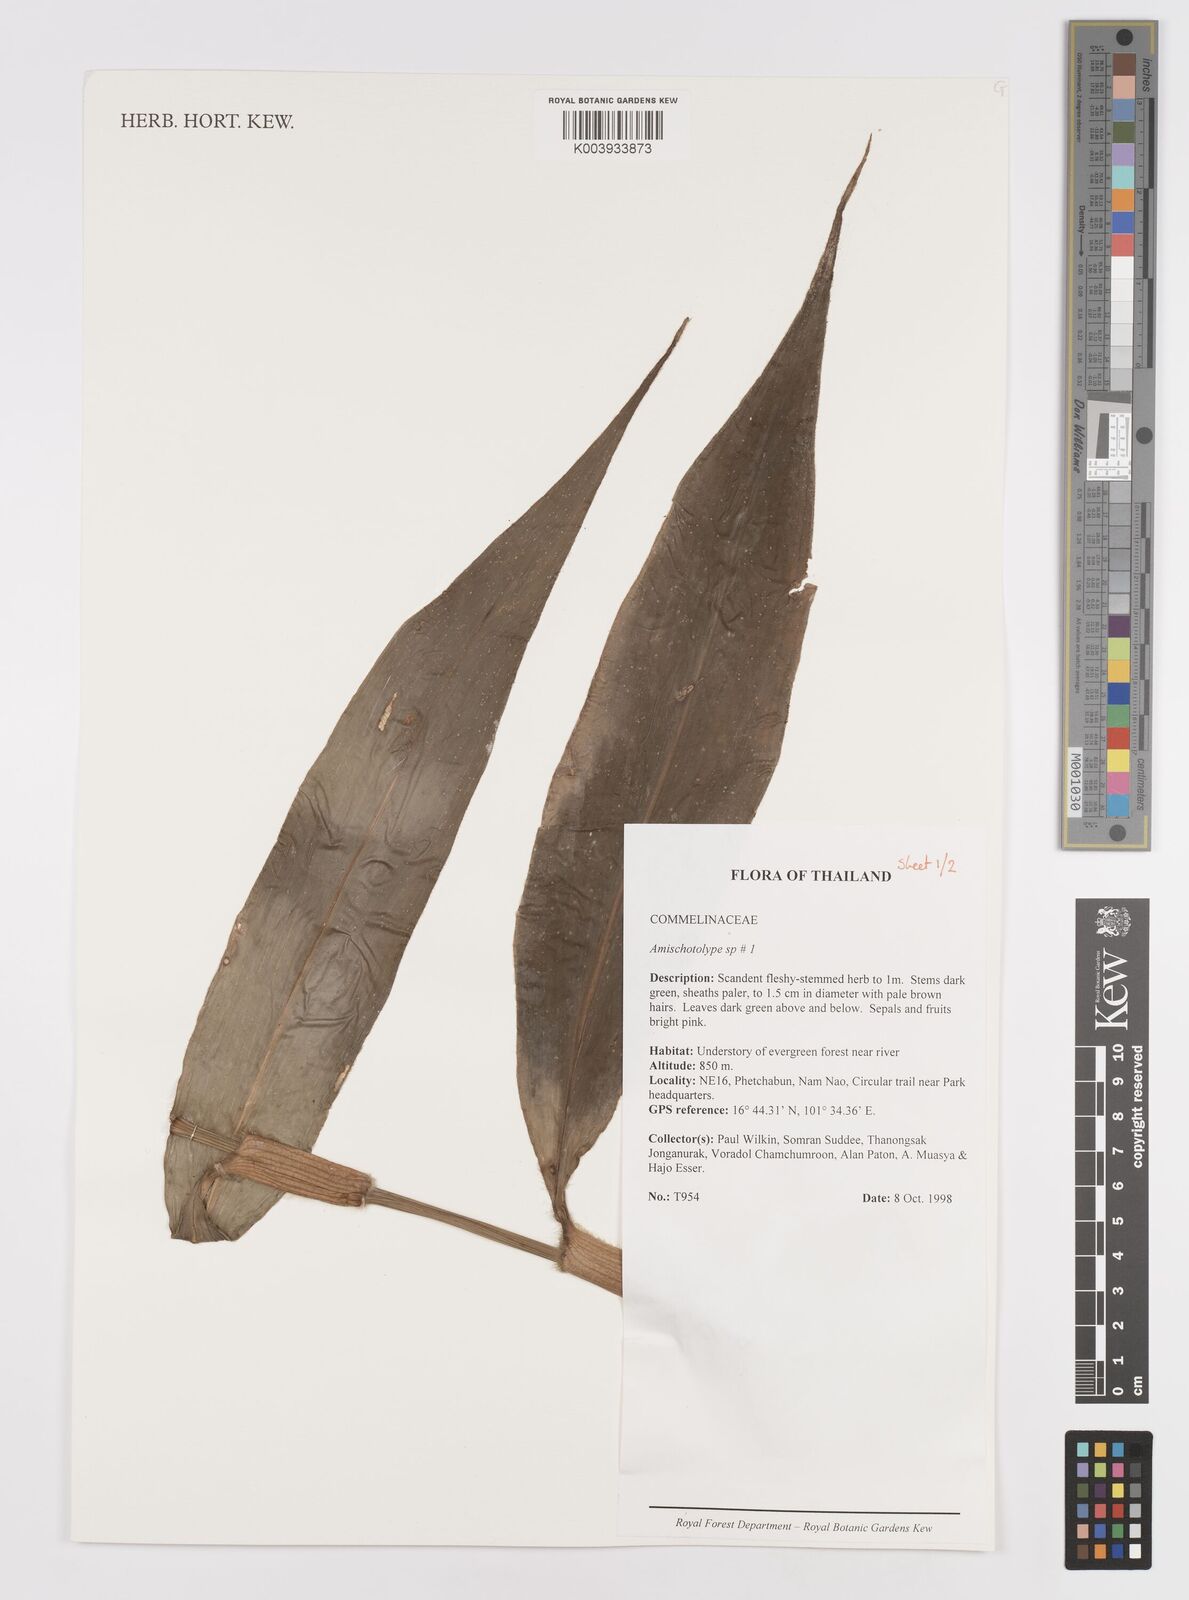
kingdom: Plantae
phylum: Tracheophyta
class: Liliopsida
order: Commelinales
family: Commelinaceae
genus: Amischotolype
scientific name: Amischotolype
